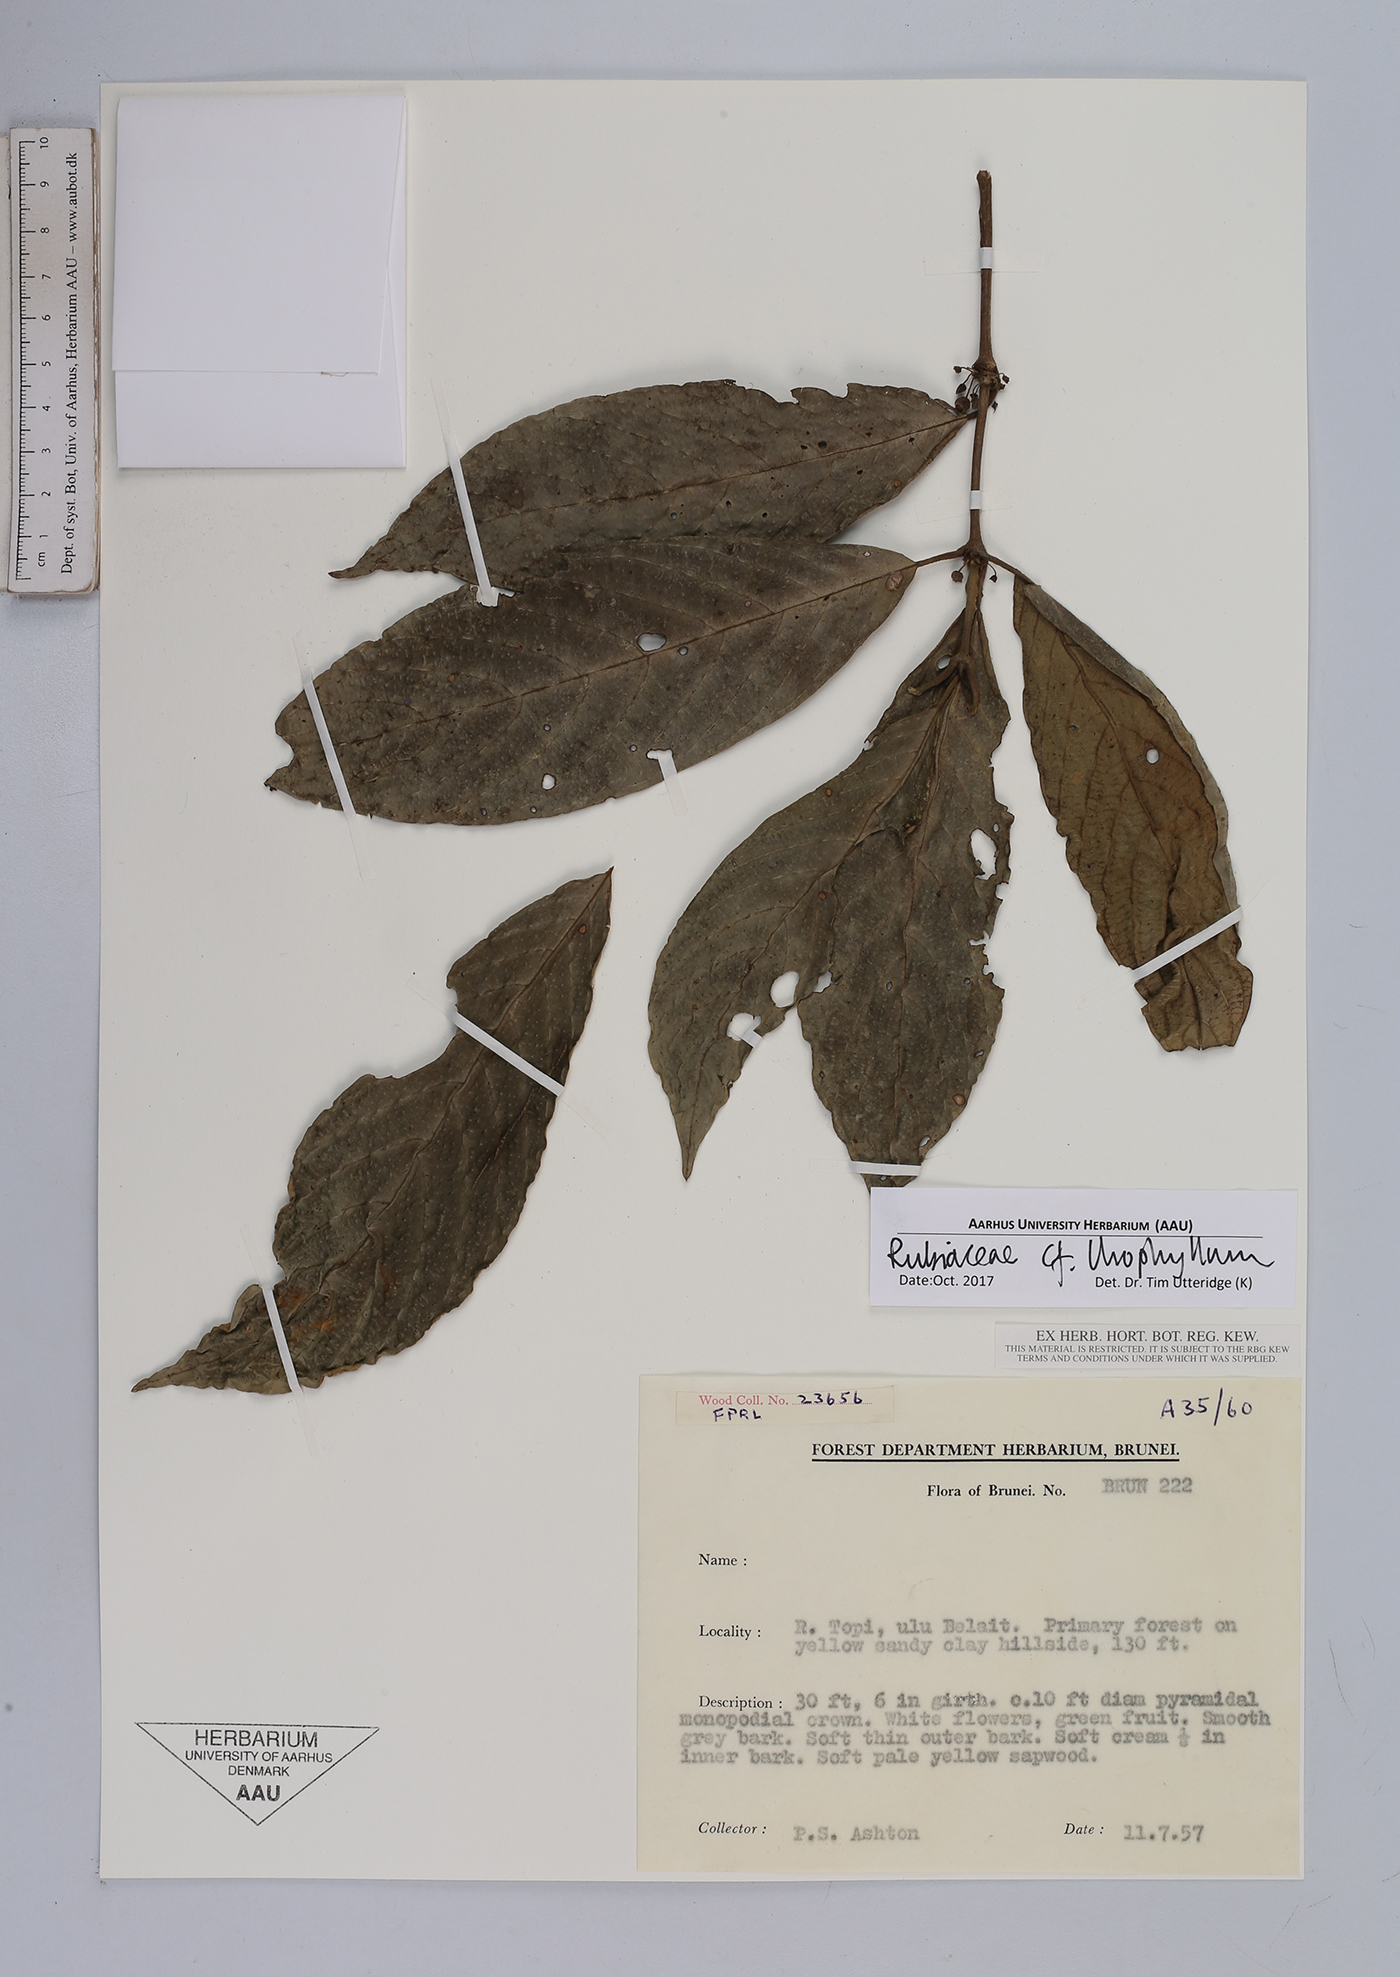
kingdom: Plantae
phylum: Tracheophyta
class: Magnoliopsida
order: Gentianales
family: Rubiaceae
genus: Urophyllum
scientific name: Urophyllum
